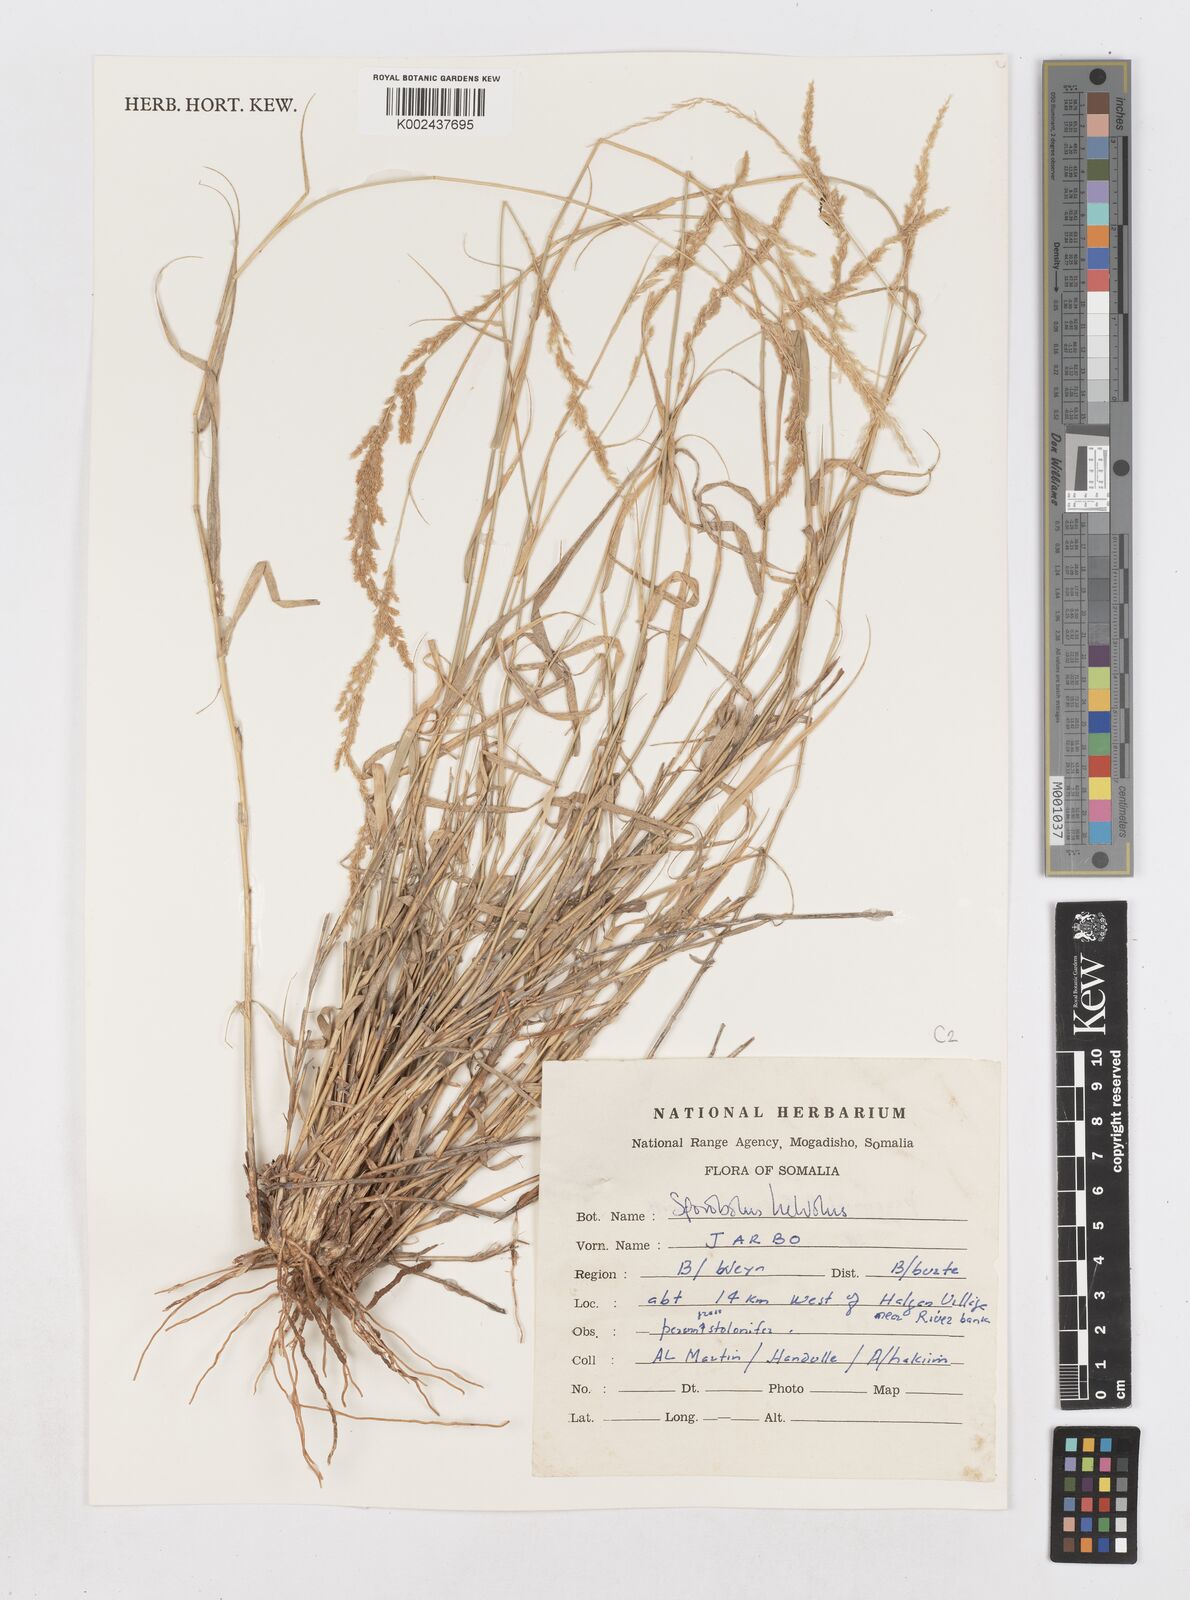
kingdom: Plantae
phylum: Tracheophyta
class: Liliopsida
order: Poales
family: Poaceae
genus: Sporobolus
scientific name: Sporobolus helvolus
